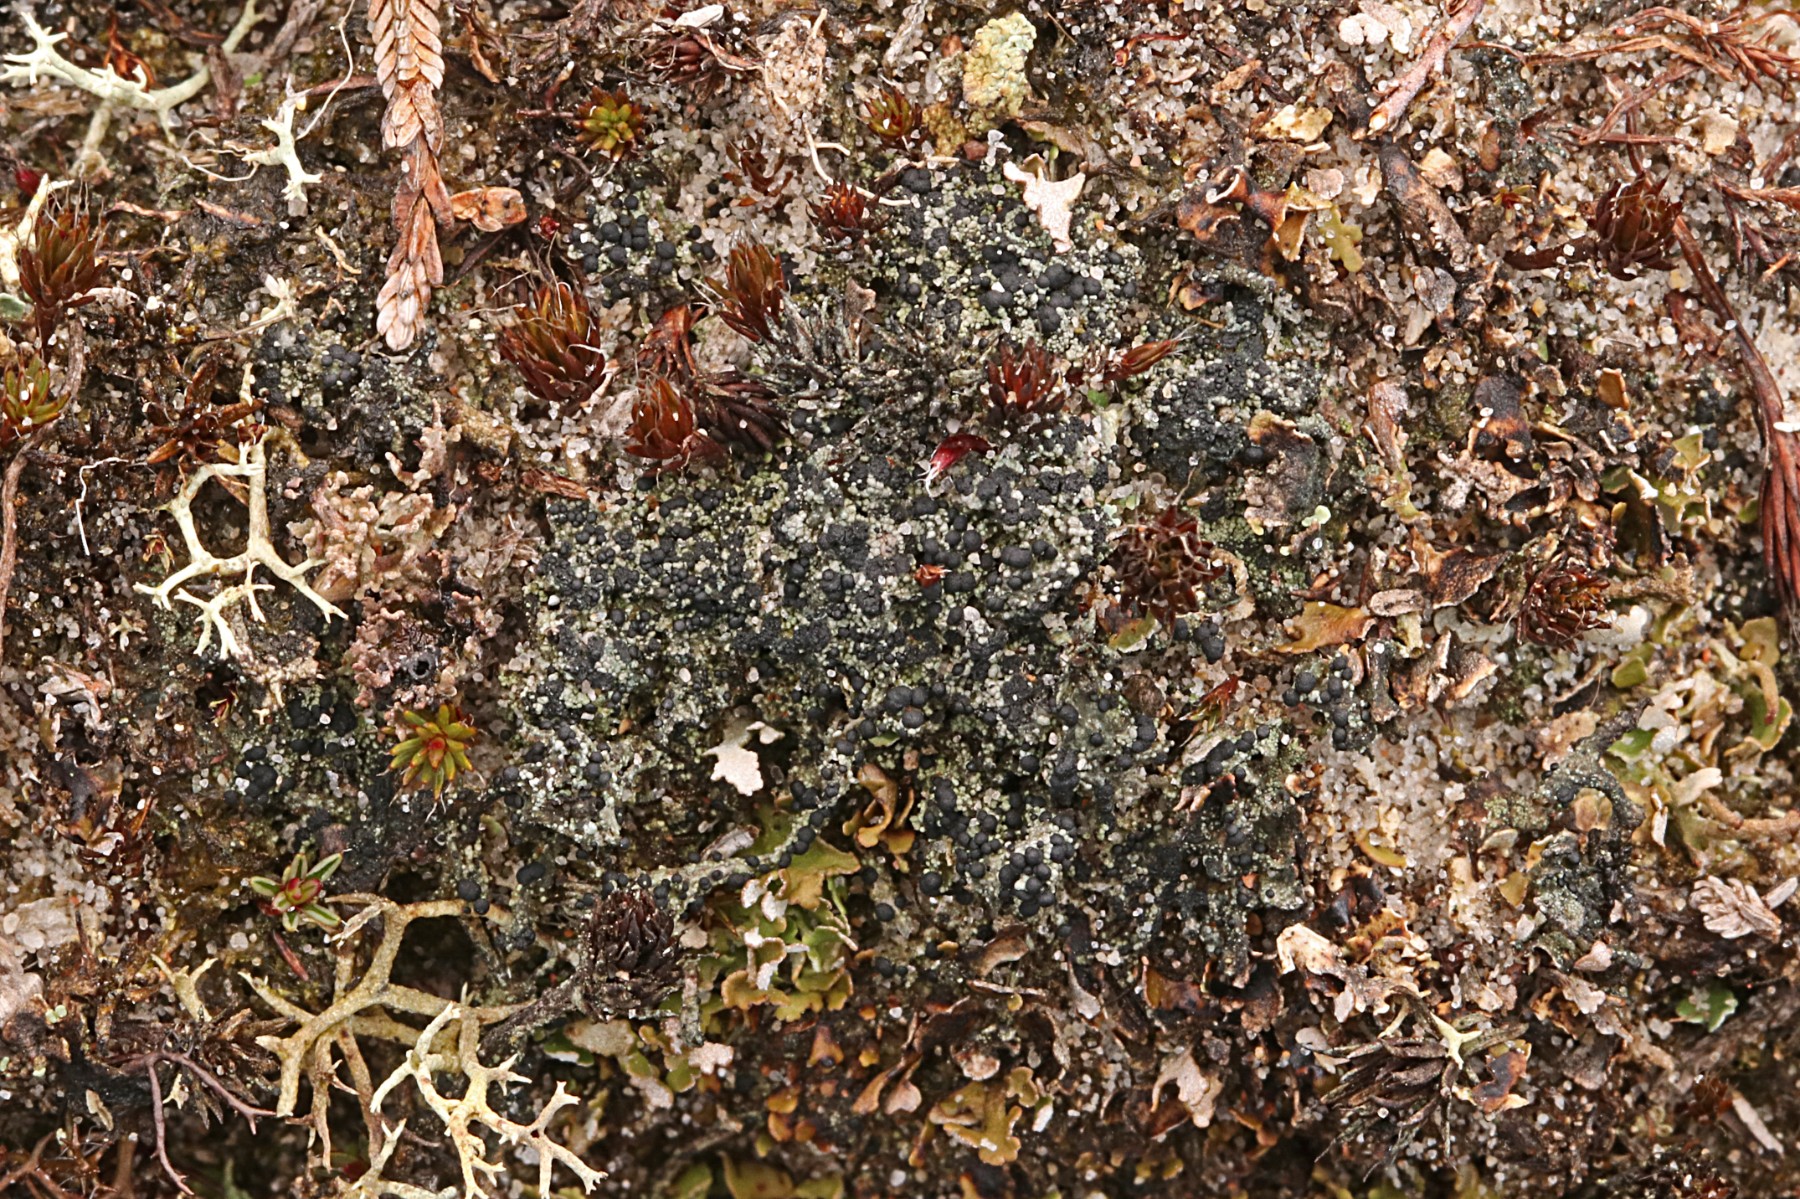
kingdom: Fungi
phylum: Ascomycota
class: Lecanoromycetes
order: Lecanorales
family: Byssolomataceae
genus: Micarea
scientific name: Micarea lignaria
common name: tørve-knaplav
